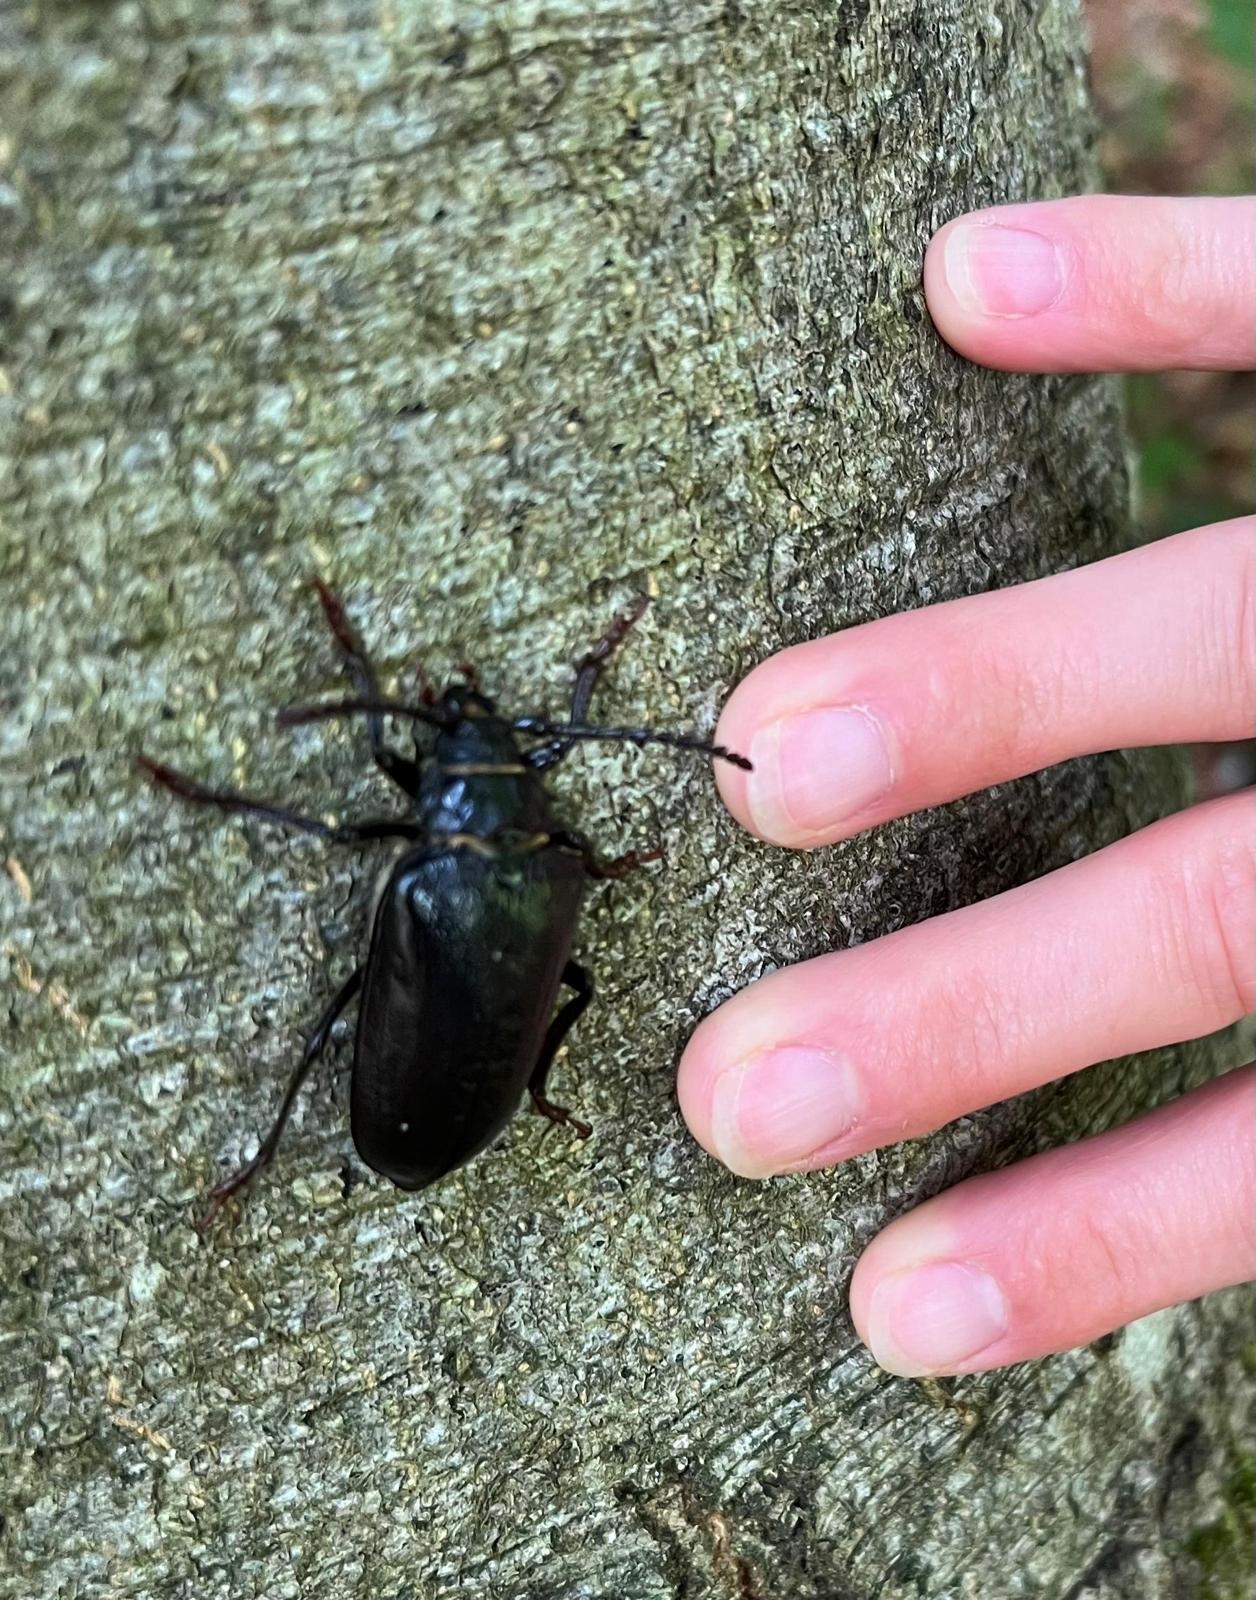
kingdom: Animalia
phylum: Arthropoda
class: Insecta
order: Coleoptera
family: Cerambycidae
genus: Prionus
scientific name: Prionus coriarius
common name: Garver
